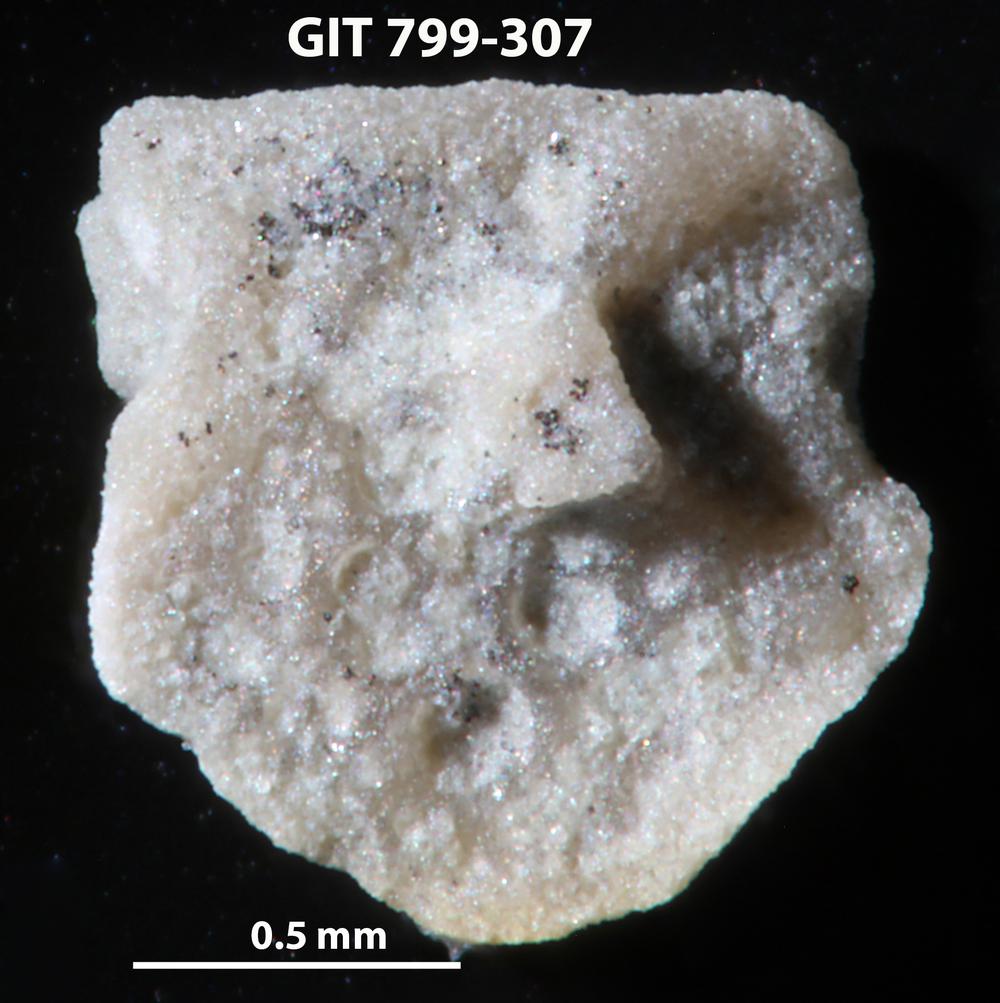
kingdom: Animalia
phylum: Echinodermata
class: Echinoidea
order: Bothriocidaroida
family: Bothriocidaridae
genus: Neobothriocidaris
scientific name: Neobothriocidaris
